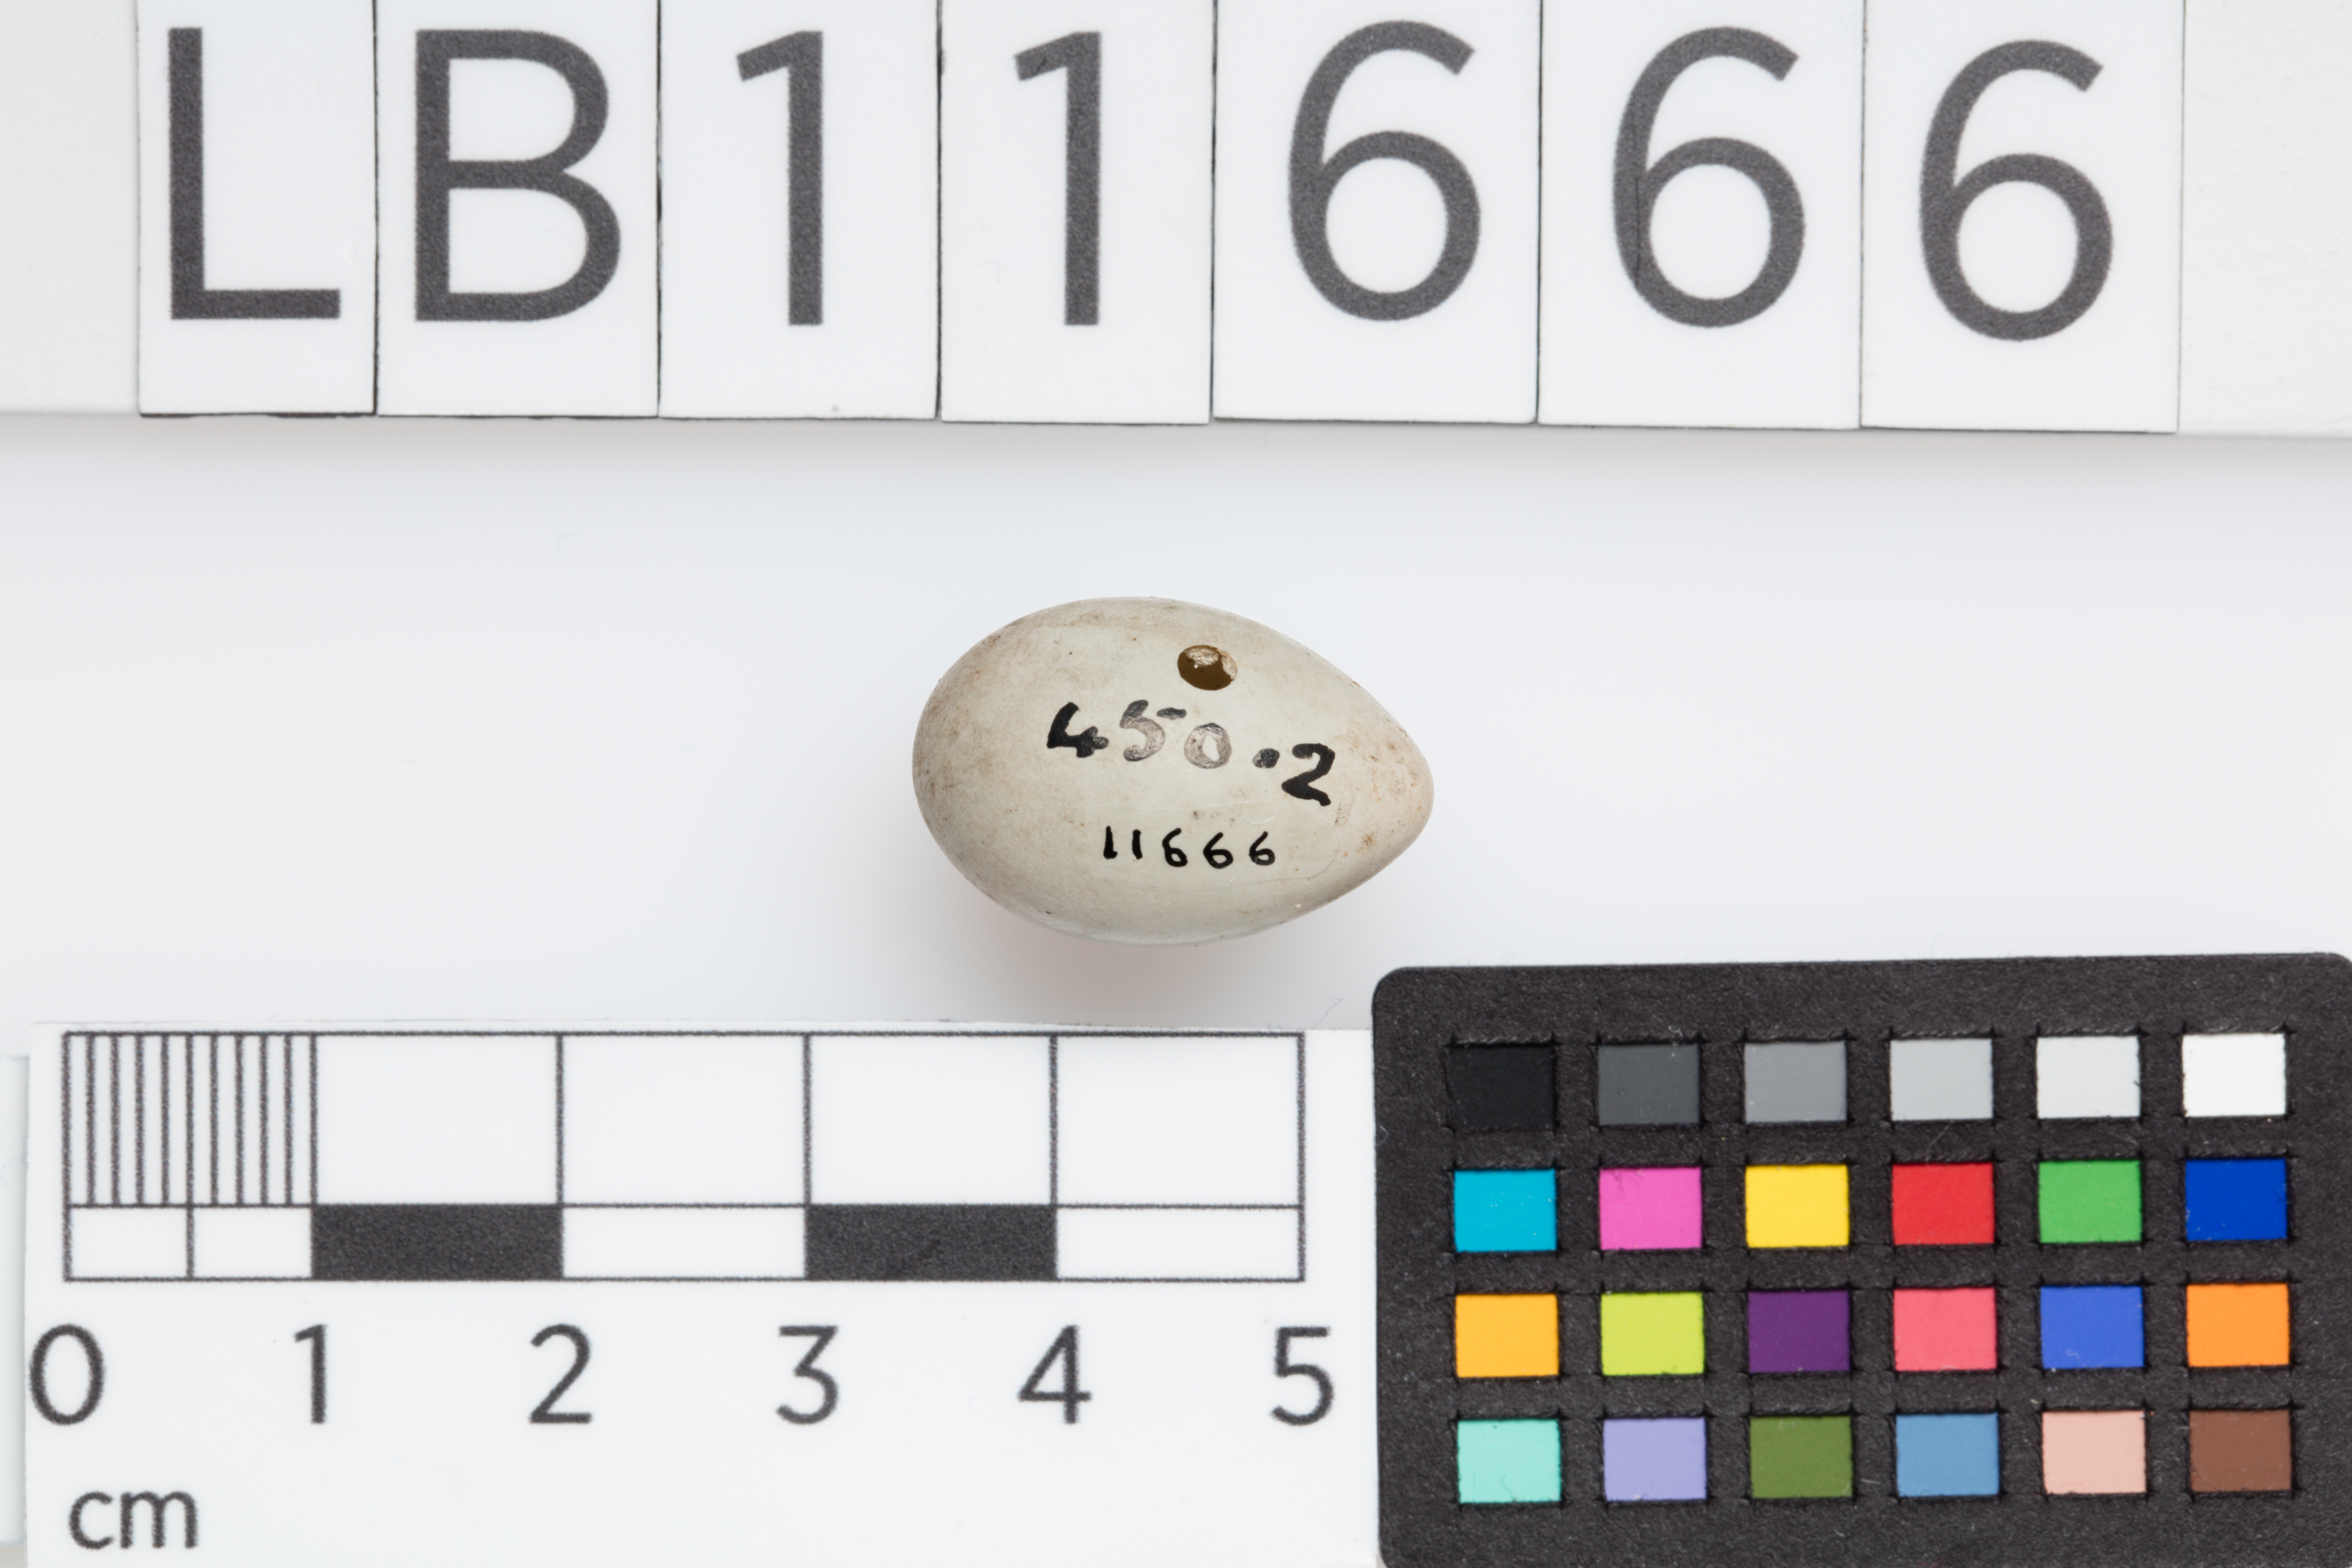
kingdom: Animalia
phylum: Chordata
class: Aves
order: Passeriformes
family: Fringillidae
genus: Linaria
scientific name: Linaria cannabina
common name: Common linnet
